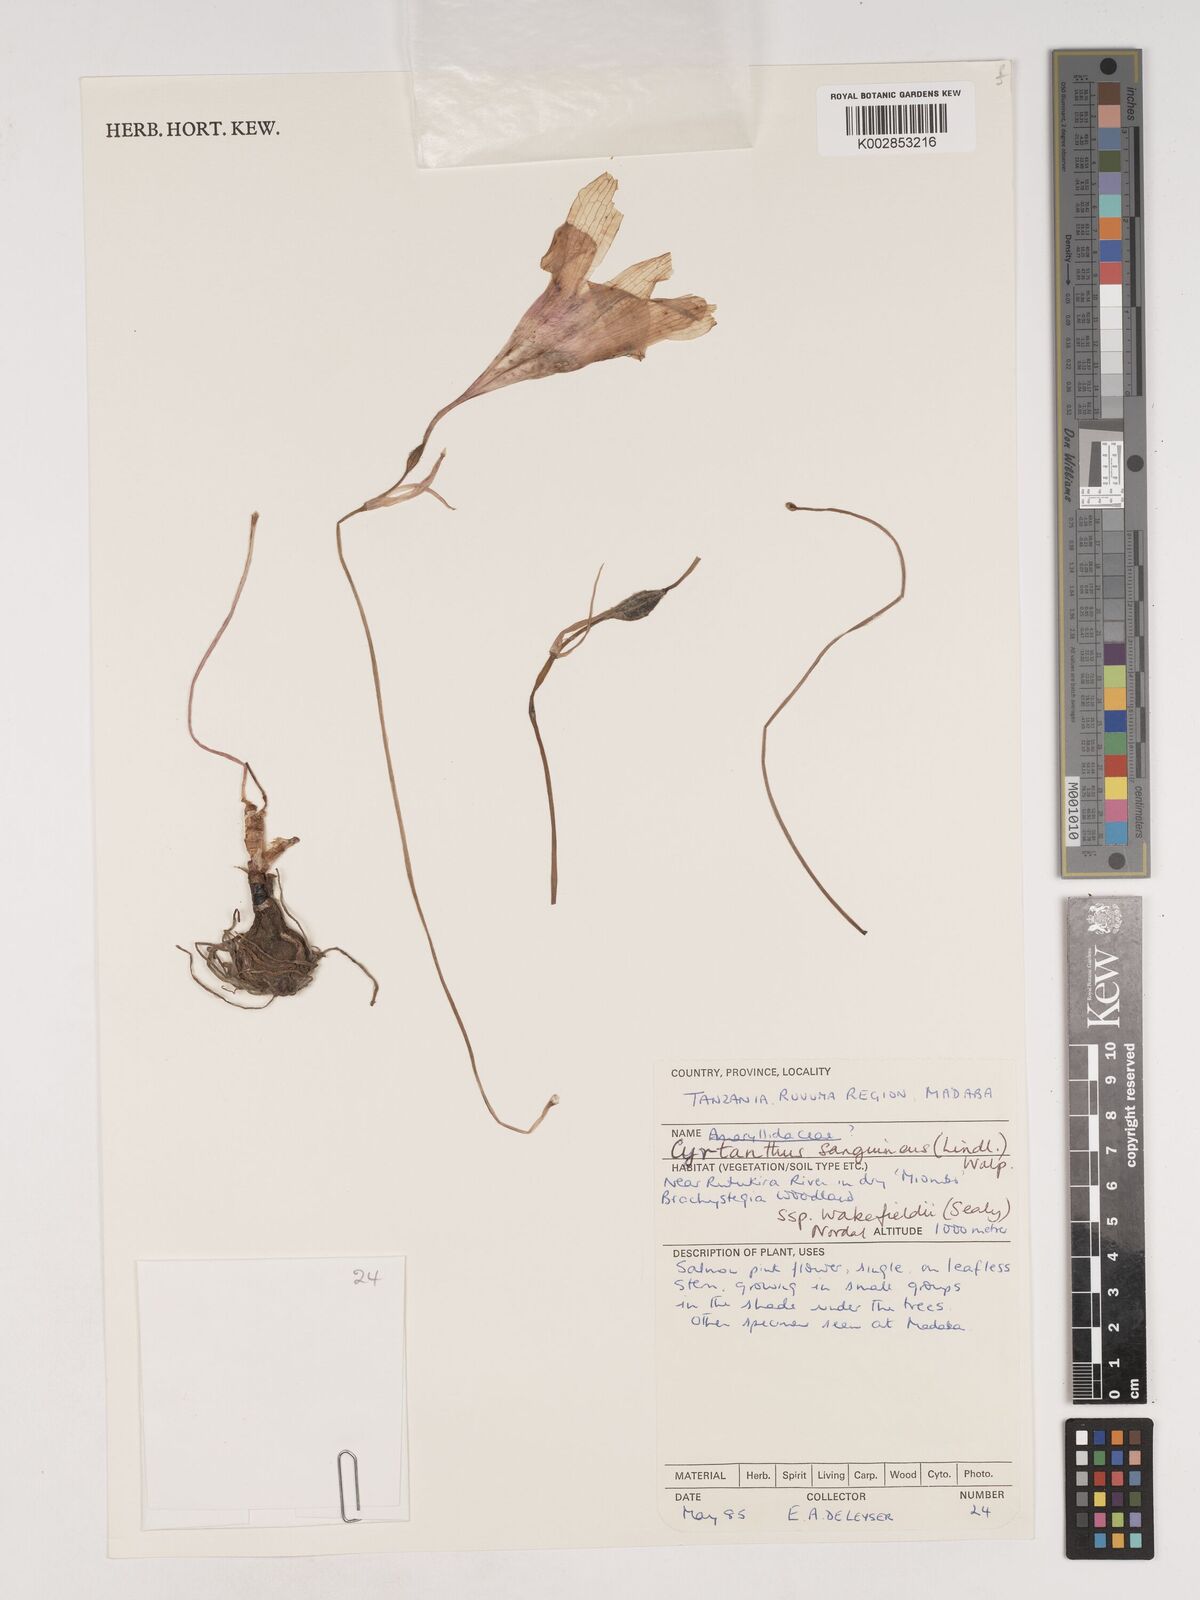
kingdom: Plantae
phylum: Tracheophyta
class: Liliopsida
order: Asparagales
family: Amaryllidaceae
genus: Cyrtanthus
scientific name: Cyrtanthus sanguineus
